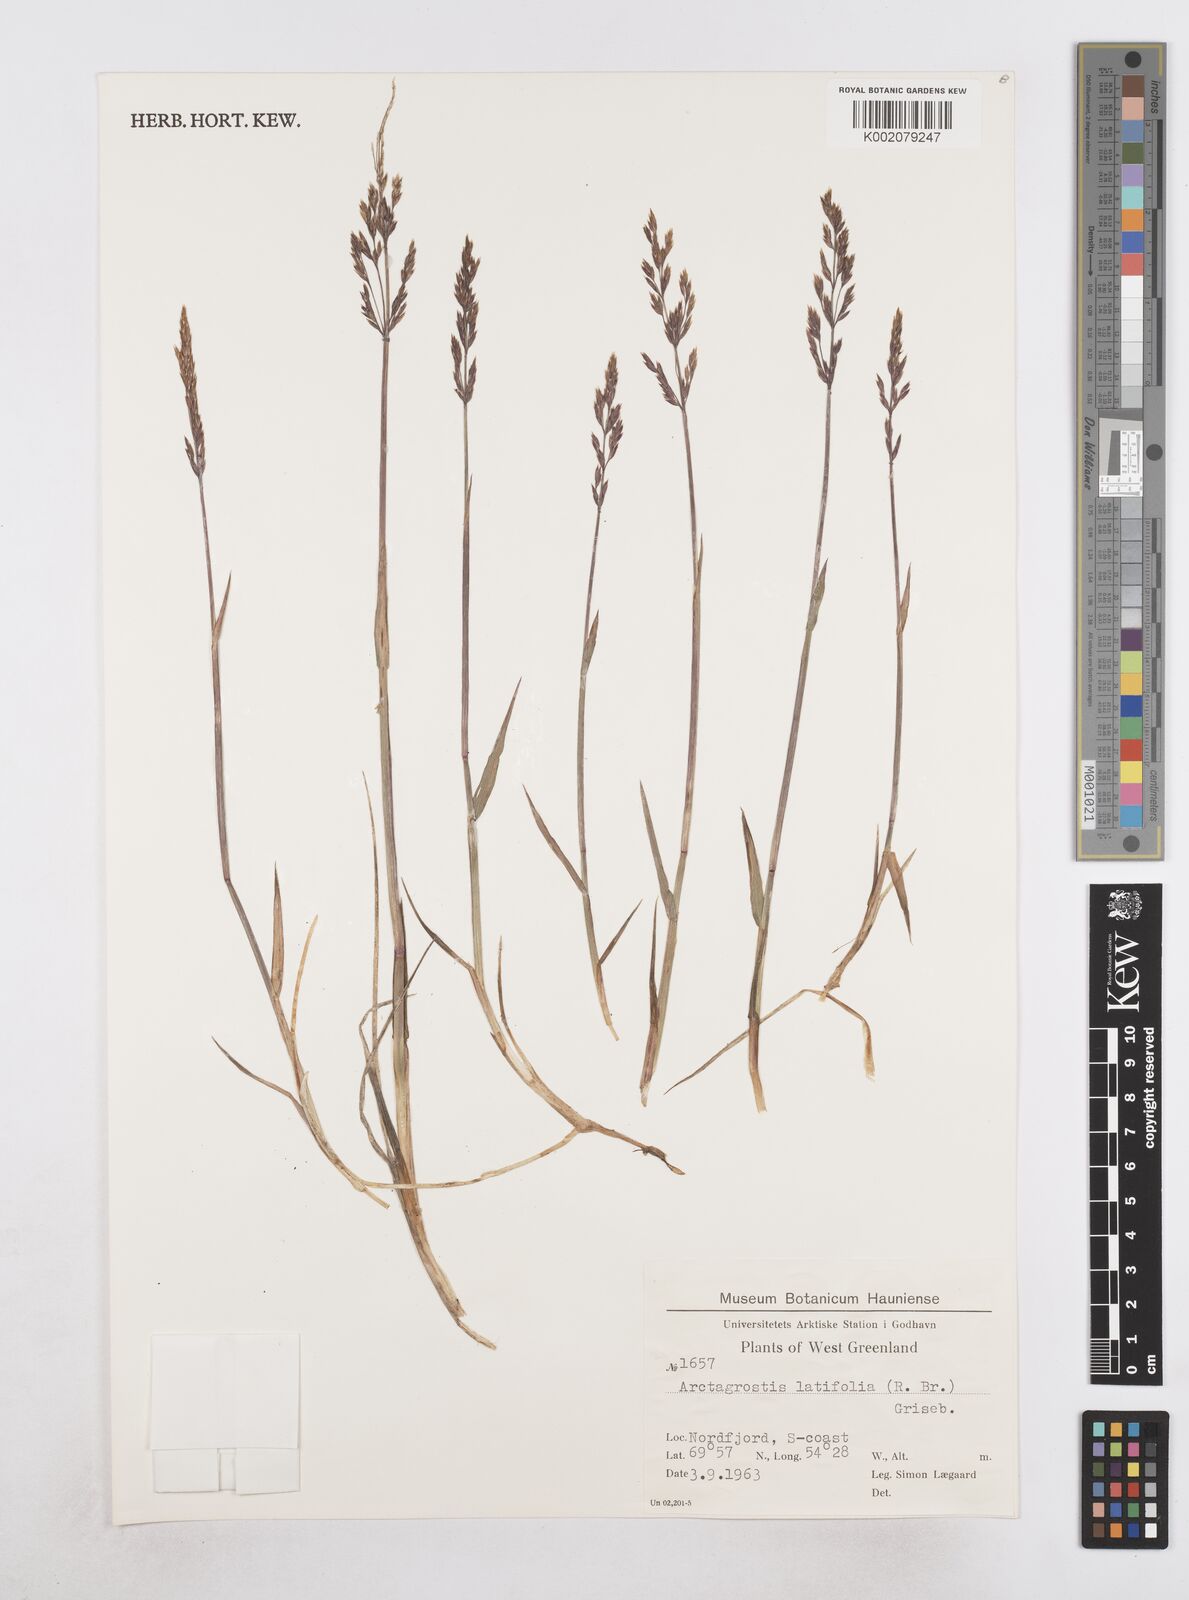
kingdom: Plantae
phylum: Tracheophyta
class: Liliopsida
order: Poales
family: Poaceae
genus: Arctagrostis
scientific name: Arctagrostis latifolia
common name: Arctic grass
